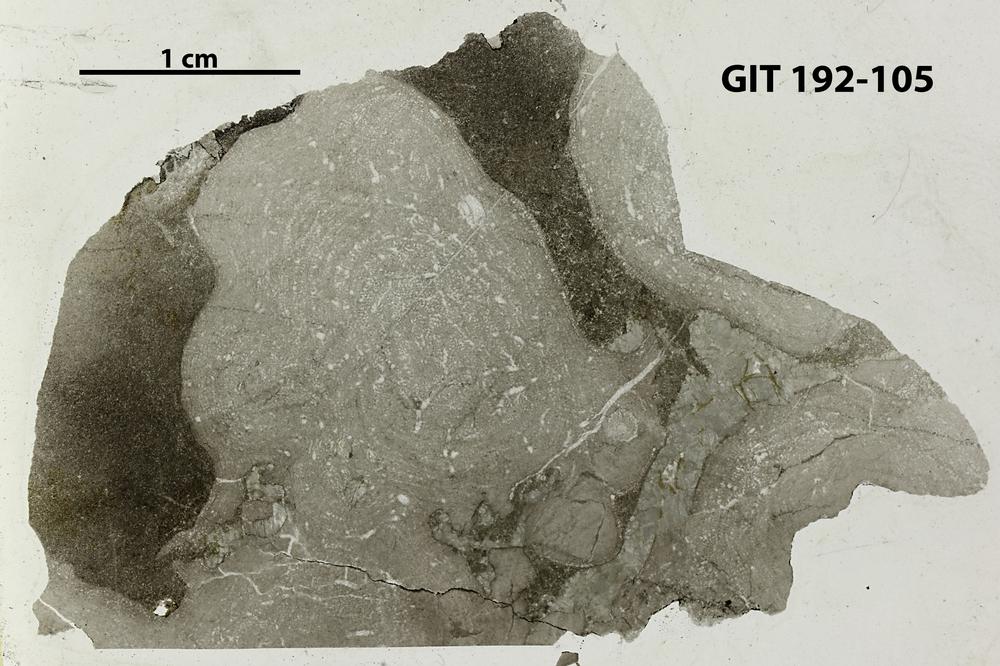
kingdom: Animalia
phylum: Porifera
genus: Clavidictyon
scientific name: Clavidictyon
